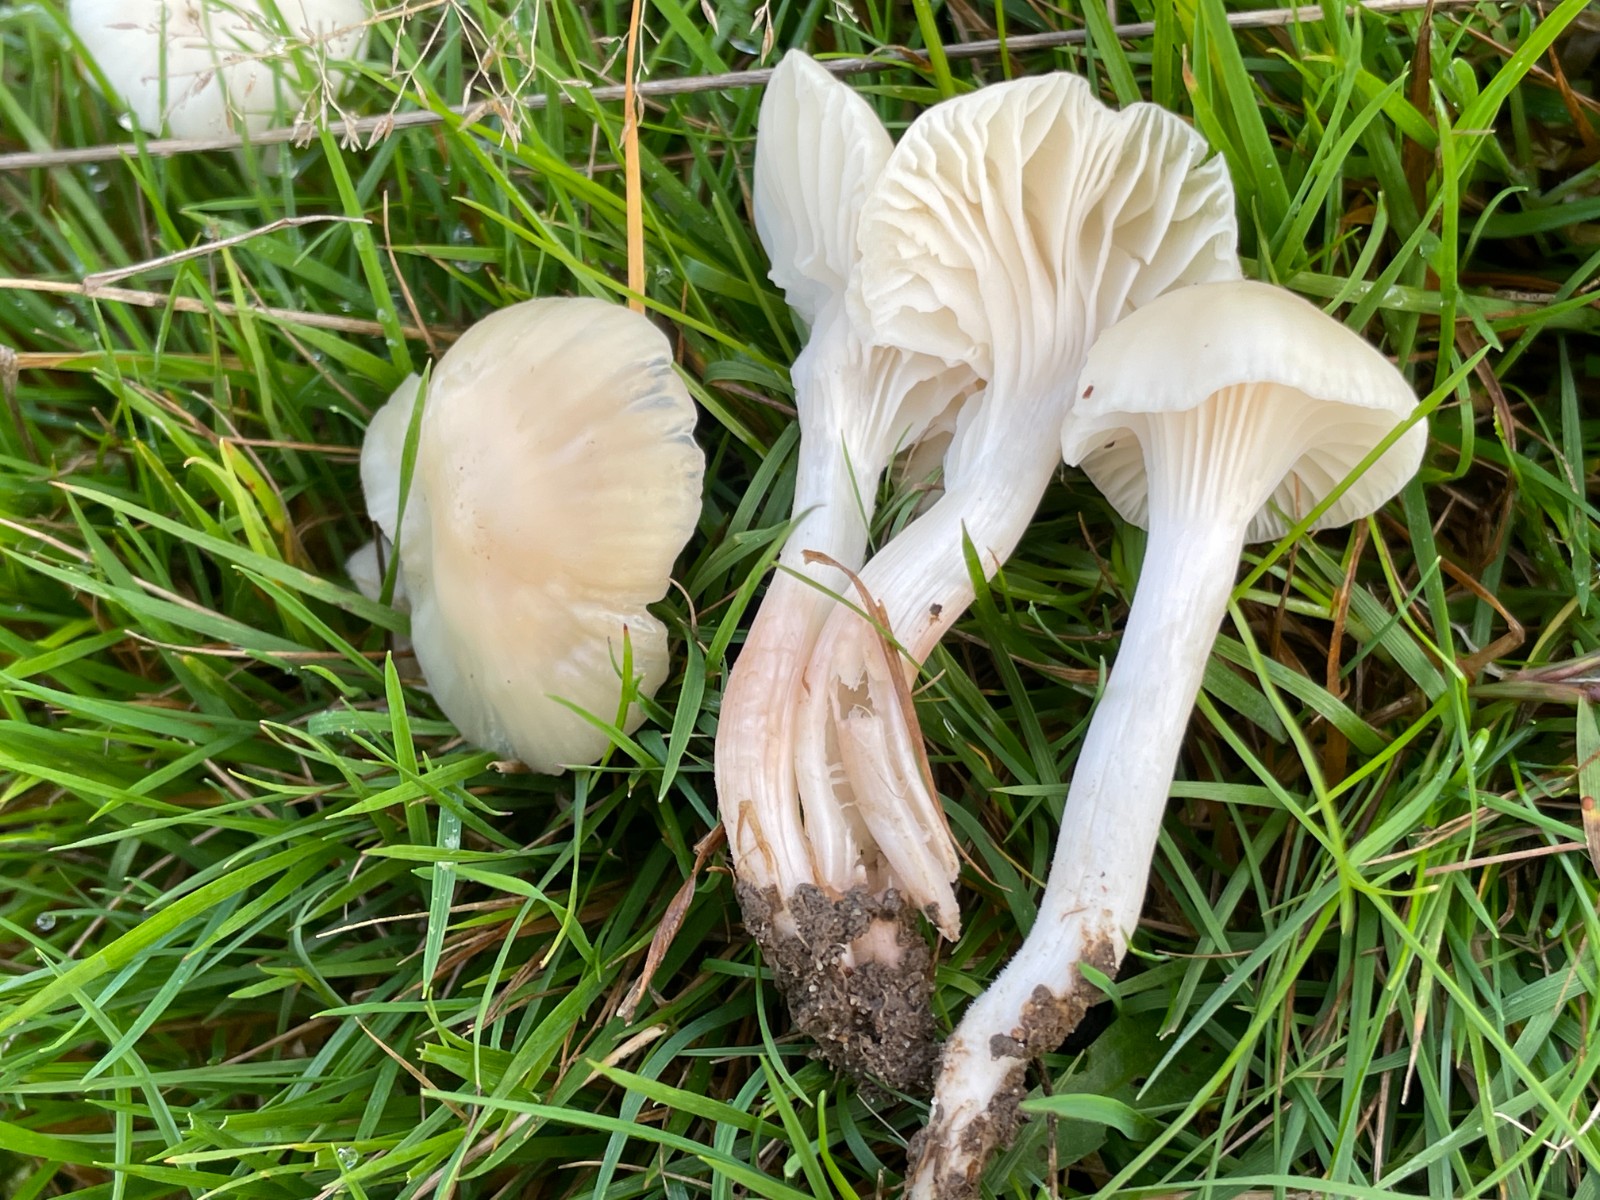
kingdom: Fungi
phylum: Basidiomycota
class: Agaricomycetes
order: Agaricales
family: Hygrophoraceae
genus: Cuphophyllus
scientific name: Cuphophyllus virgineus
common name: snehvid vokshat
